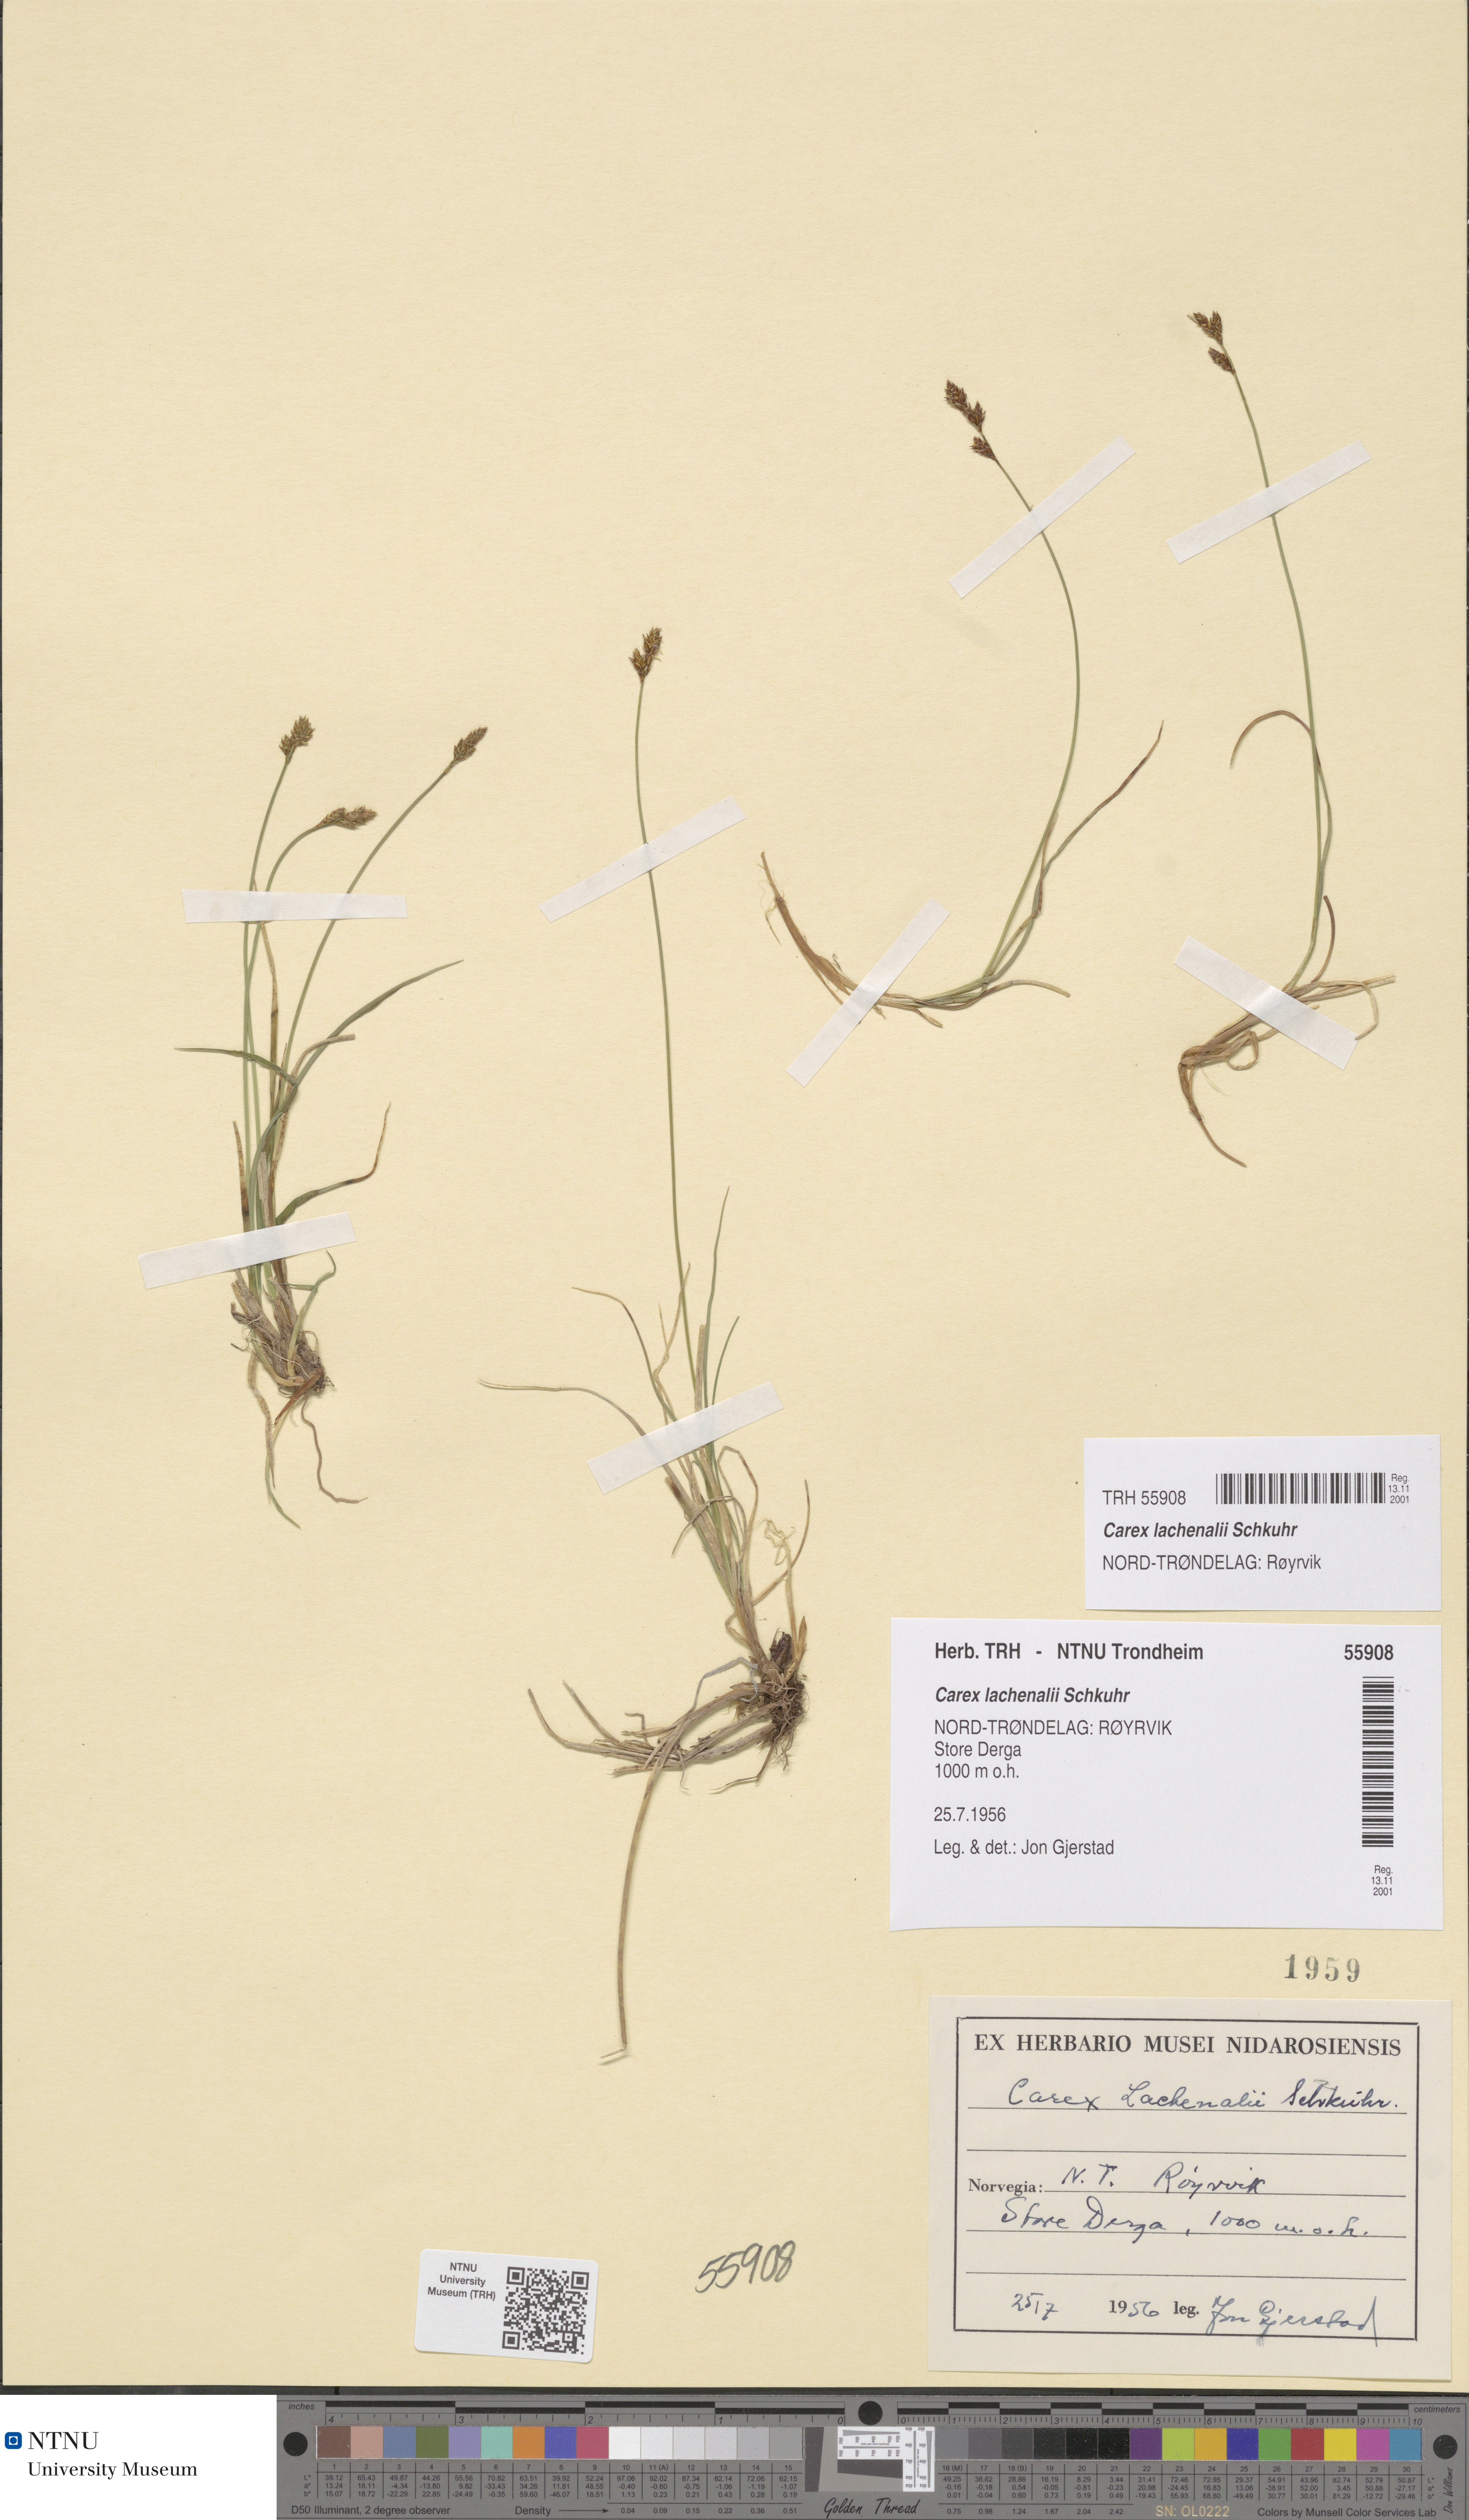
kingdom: Plantae
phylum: Tracheophyta
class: Liliopsida
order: Poales
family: Cyperaceae
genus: Carex
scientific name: Carex lachenalii
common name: Hare's-foot sedge
